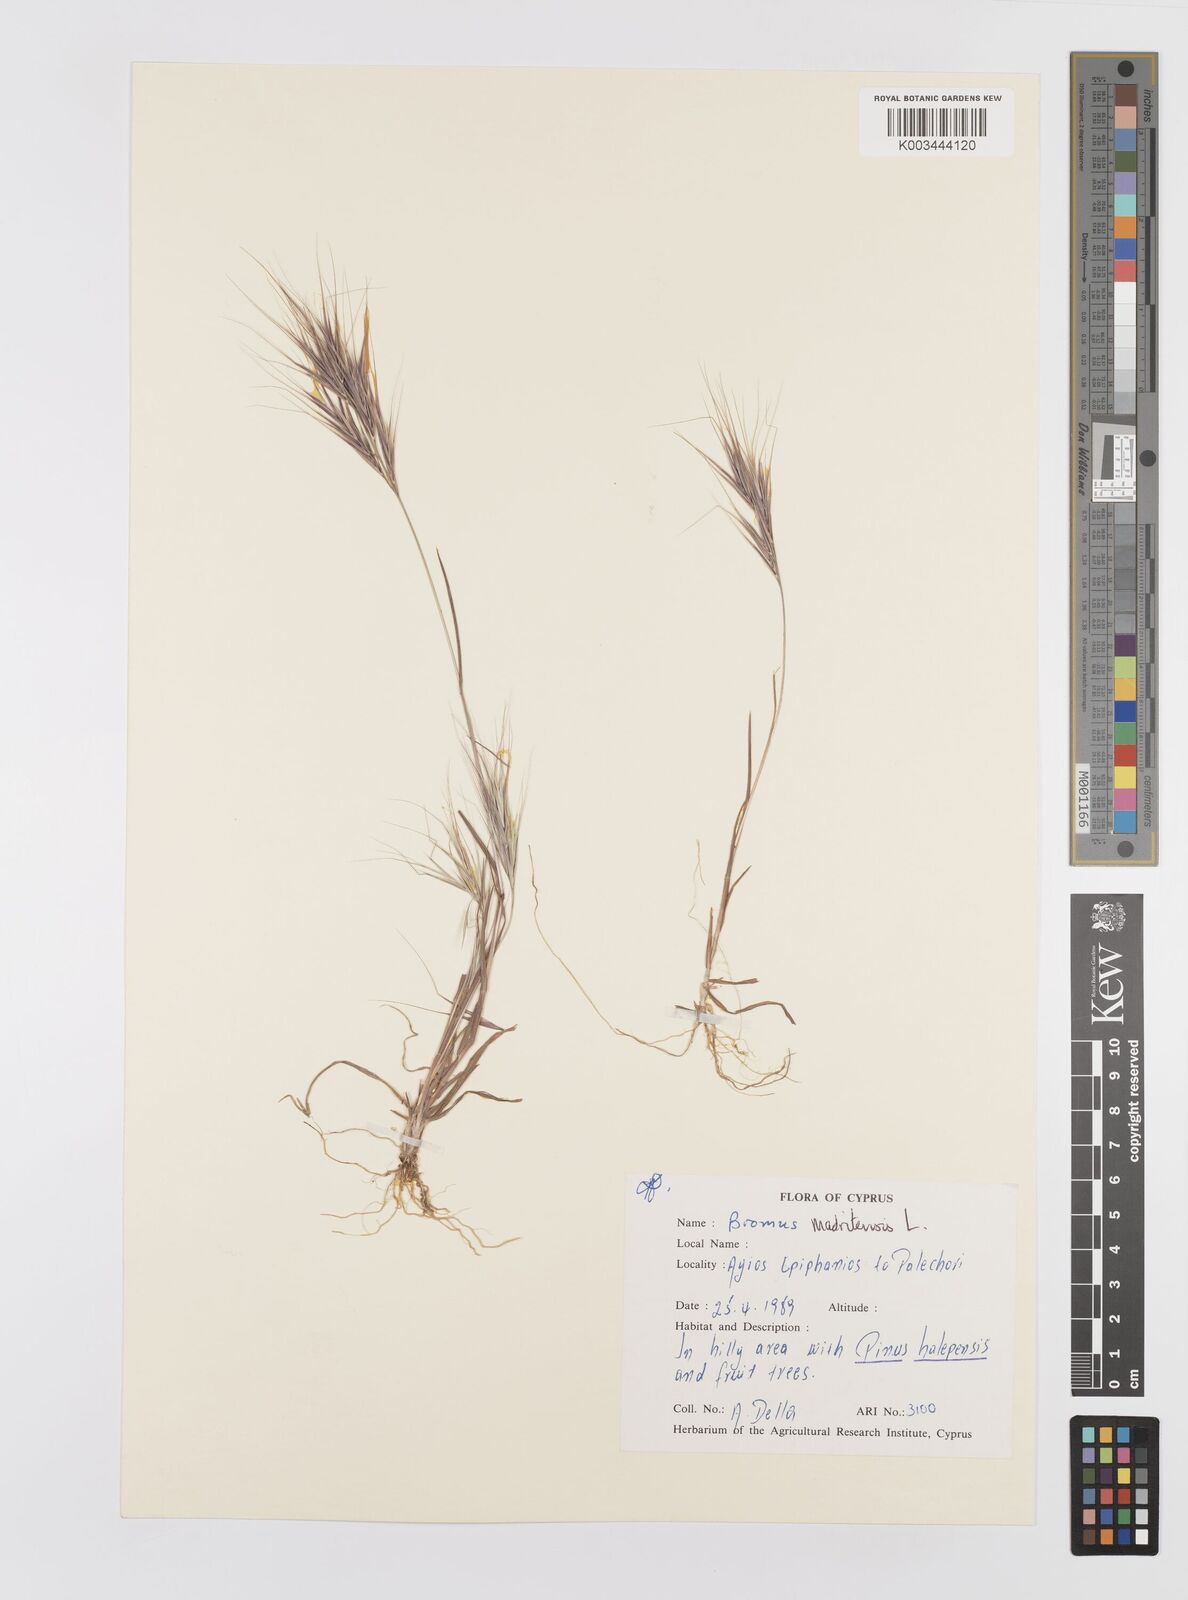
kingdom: Plantae
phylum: Tracheophyta
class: Liliopsida
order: Poales
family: Poaceae
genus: Bromus
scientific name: Bromus madritensis
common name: Compact brome
